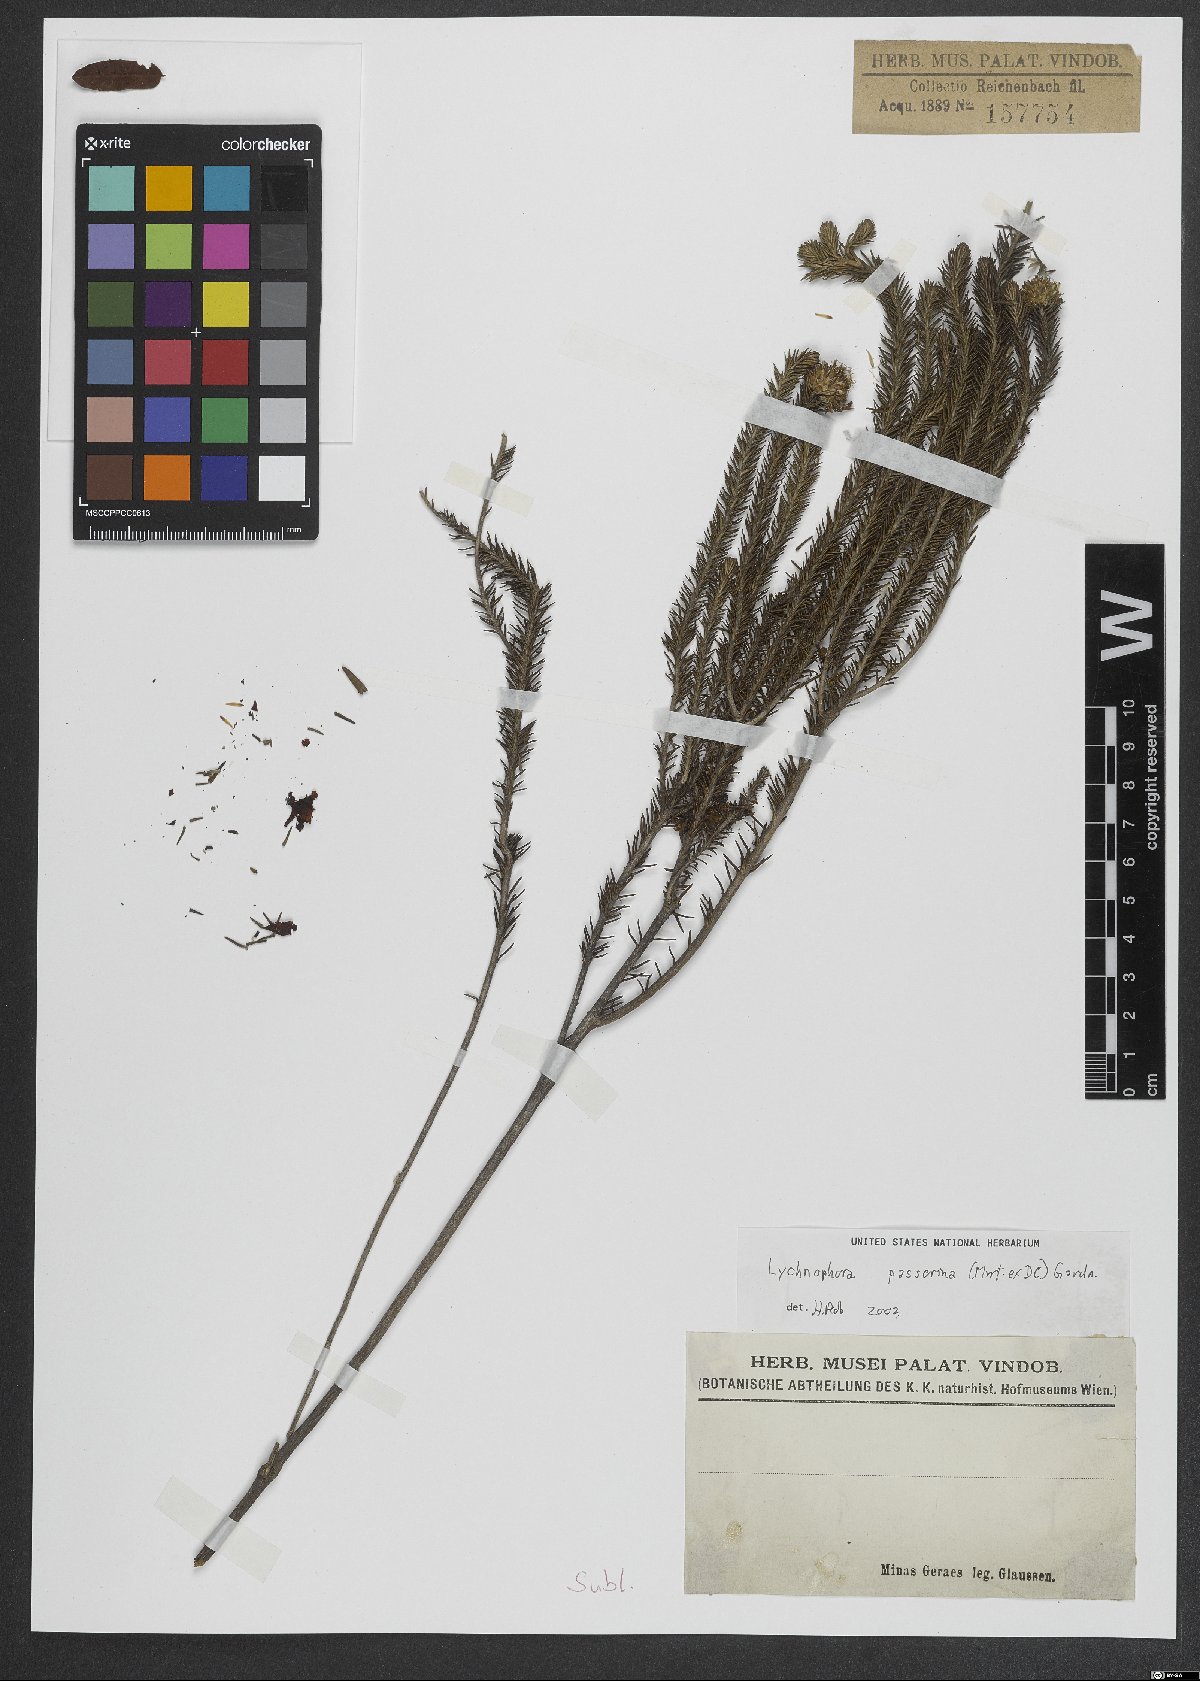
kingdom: Plantae
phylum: Tracheophyta
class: Magnoliopsida
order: Asterales
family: Asteraceae
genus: Lychnophora
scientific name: Lychnophora passerina
